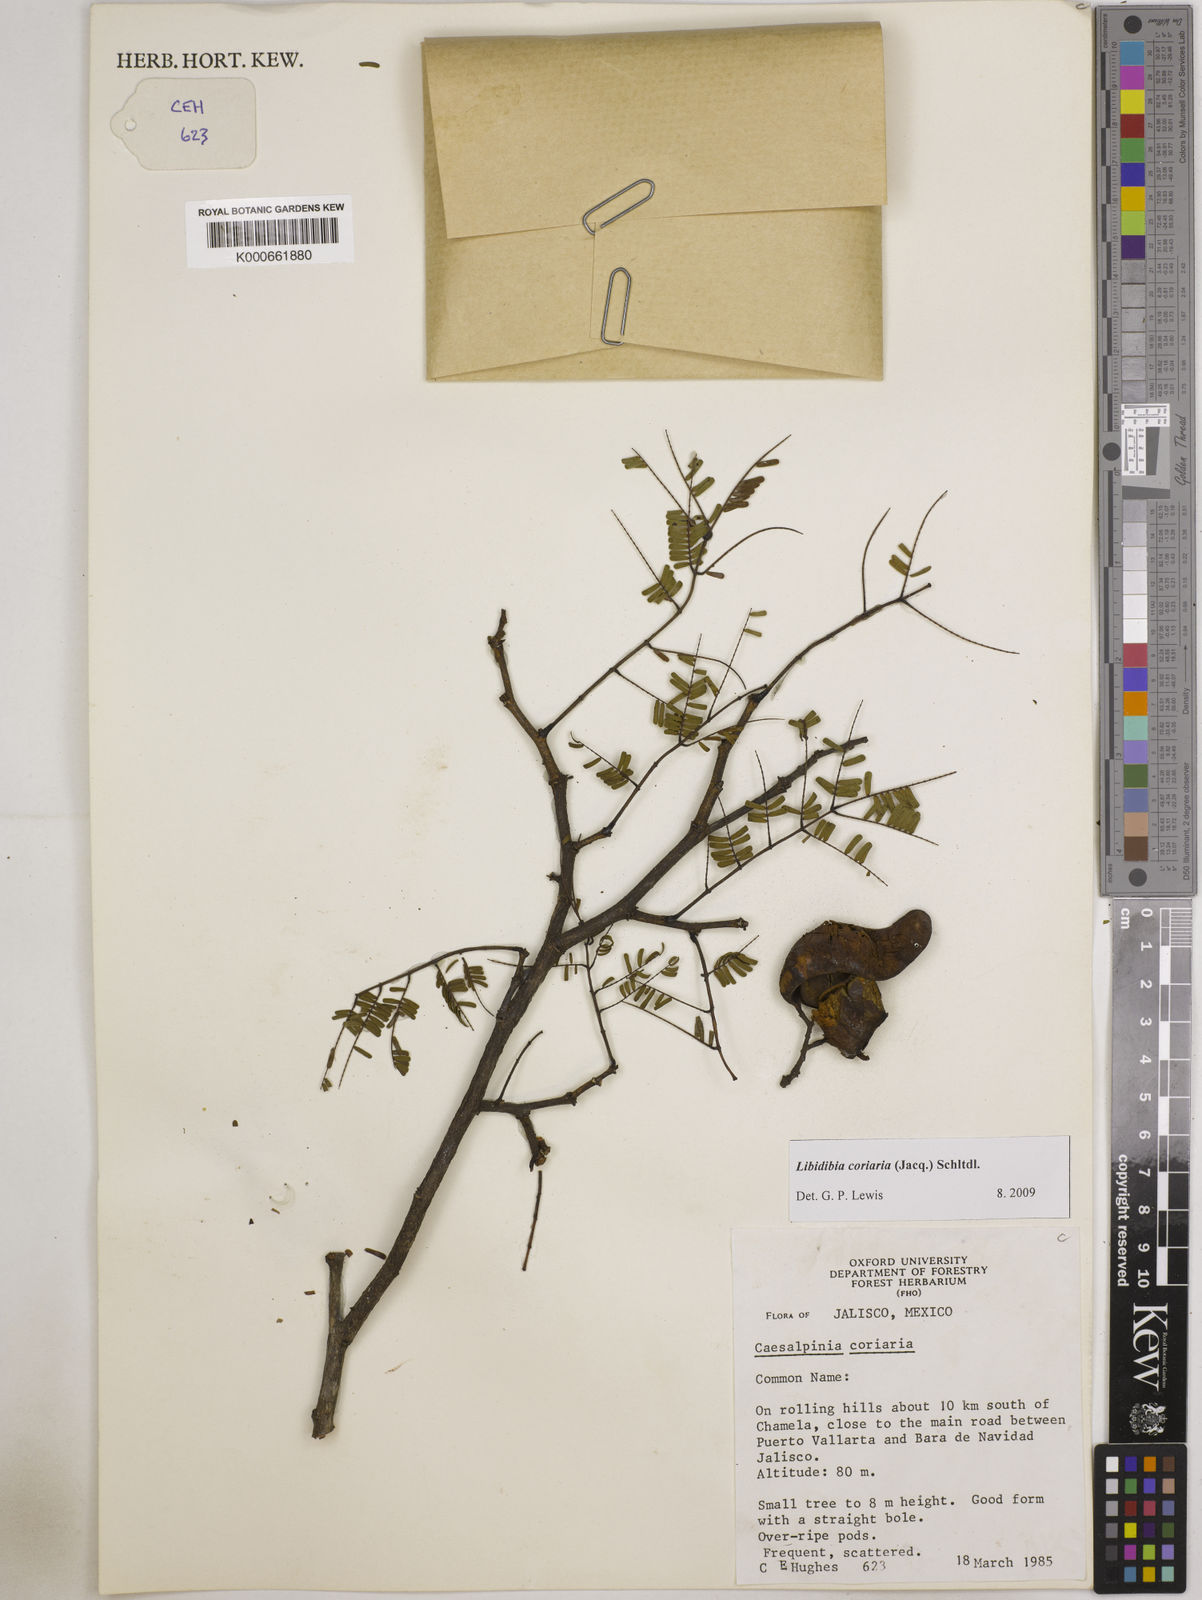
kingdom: Plantae
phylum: Tracheophyta
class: Magnoliopsida
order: Fabales
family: Fabaceae
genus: Libidibia
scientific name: Libidibia coriaria
